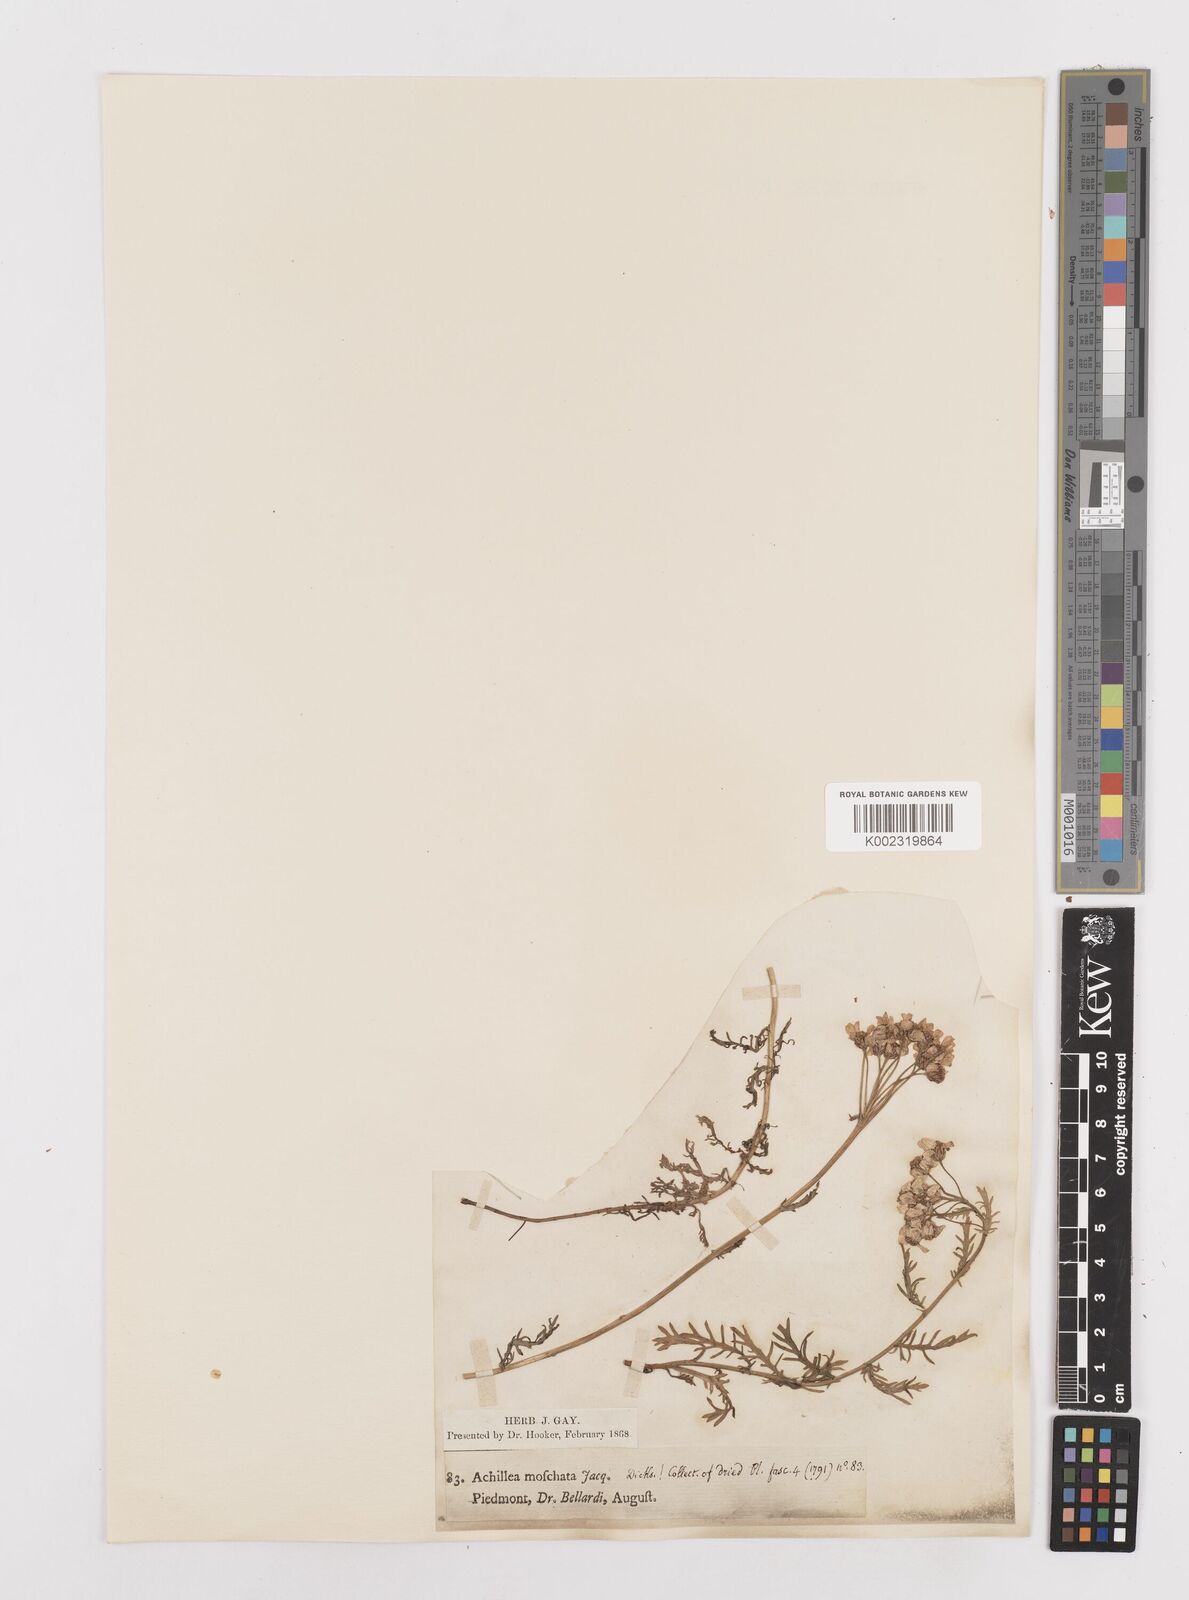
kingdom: Plantae
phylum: Tracheophyta
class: Magnoliopsida
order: Asterales
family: Asteraceae
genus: Achillea
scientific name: Achillea erba-rotta
